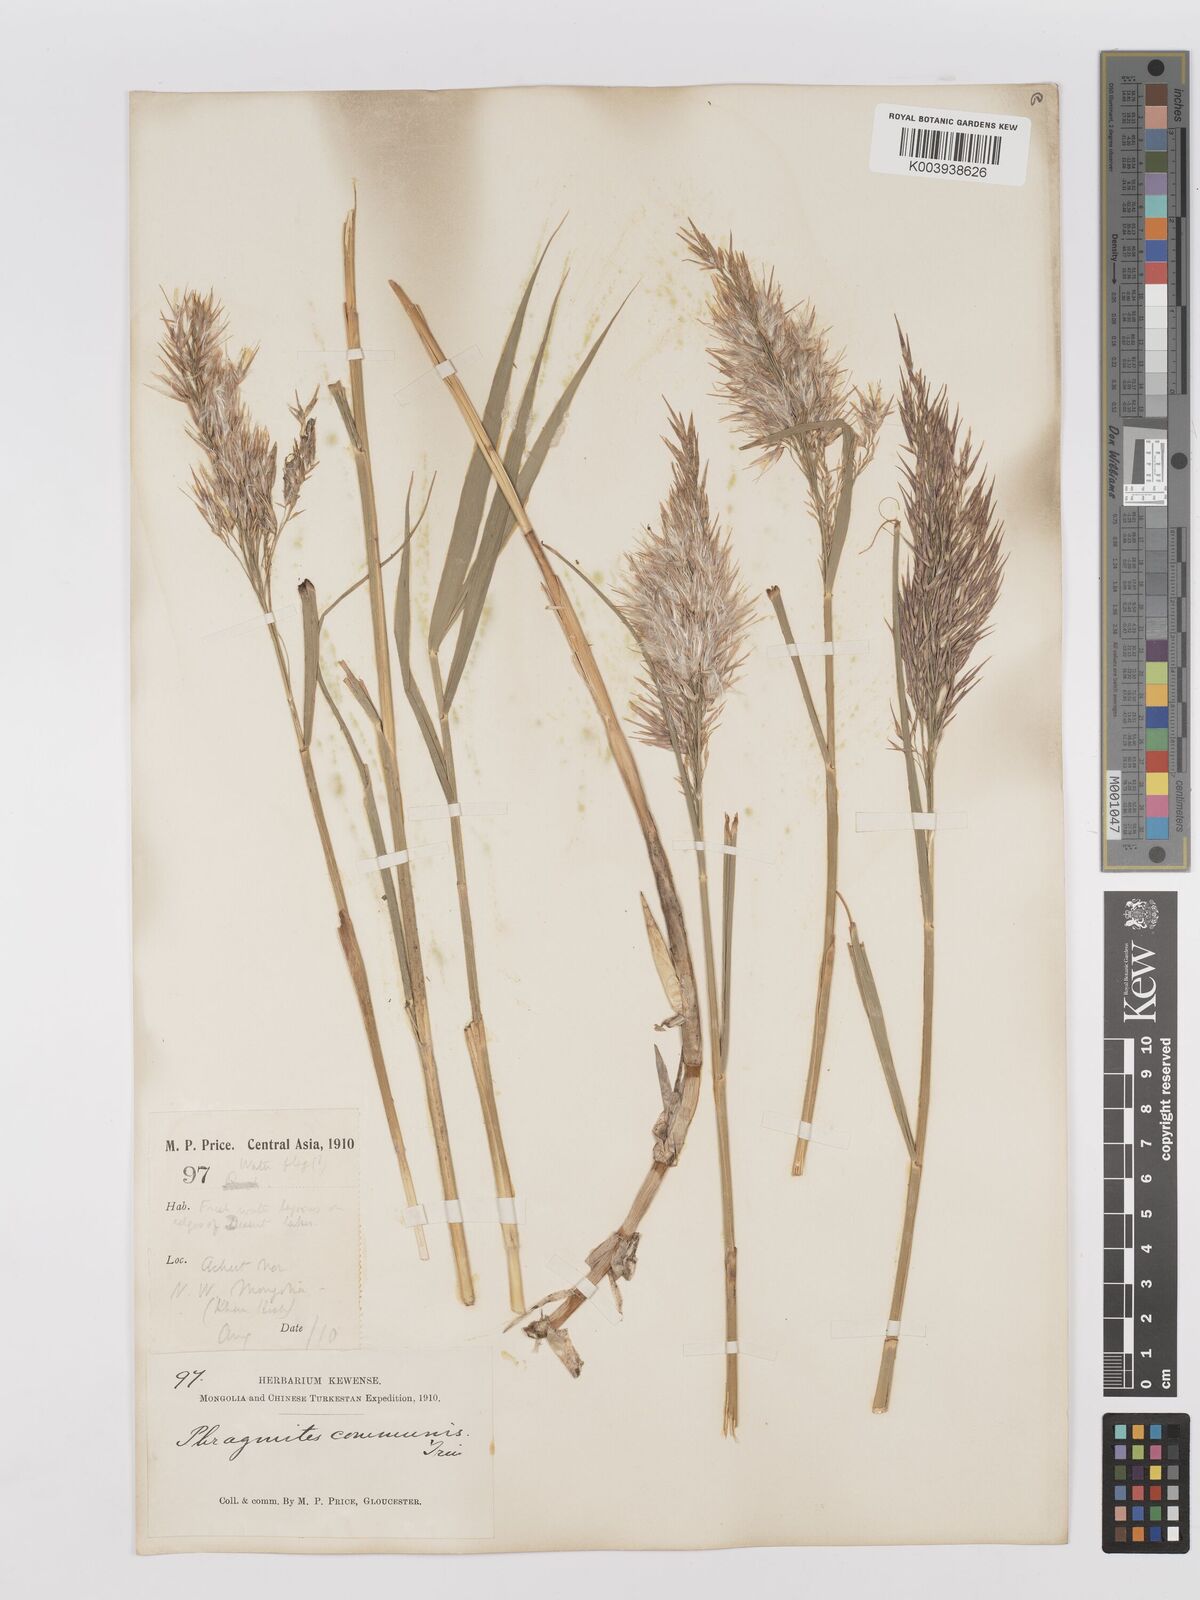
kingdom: Plantae
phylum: Tracheophyta
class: Liliopsida
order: Poales
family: Poaceae
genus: Phragmites
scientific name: Phragmites australis
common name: Common reed
